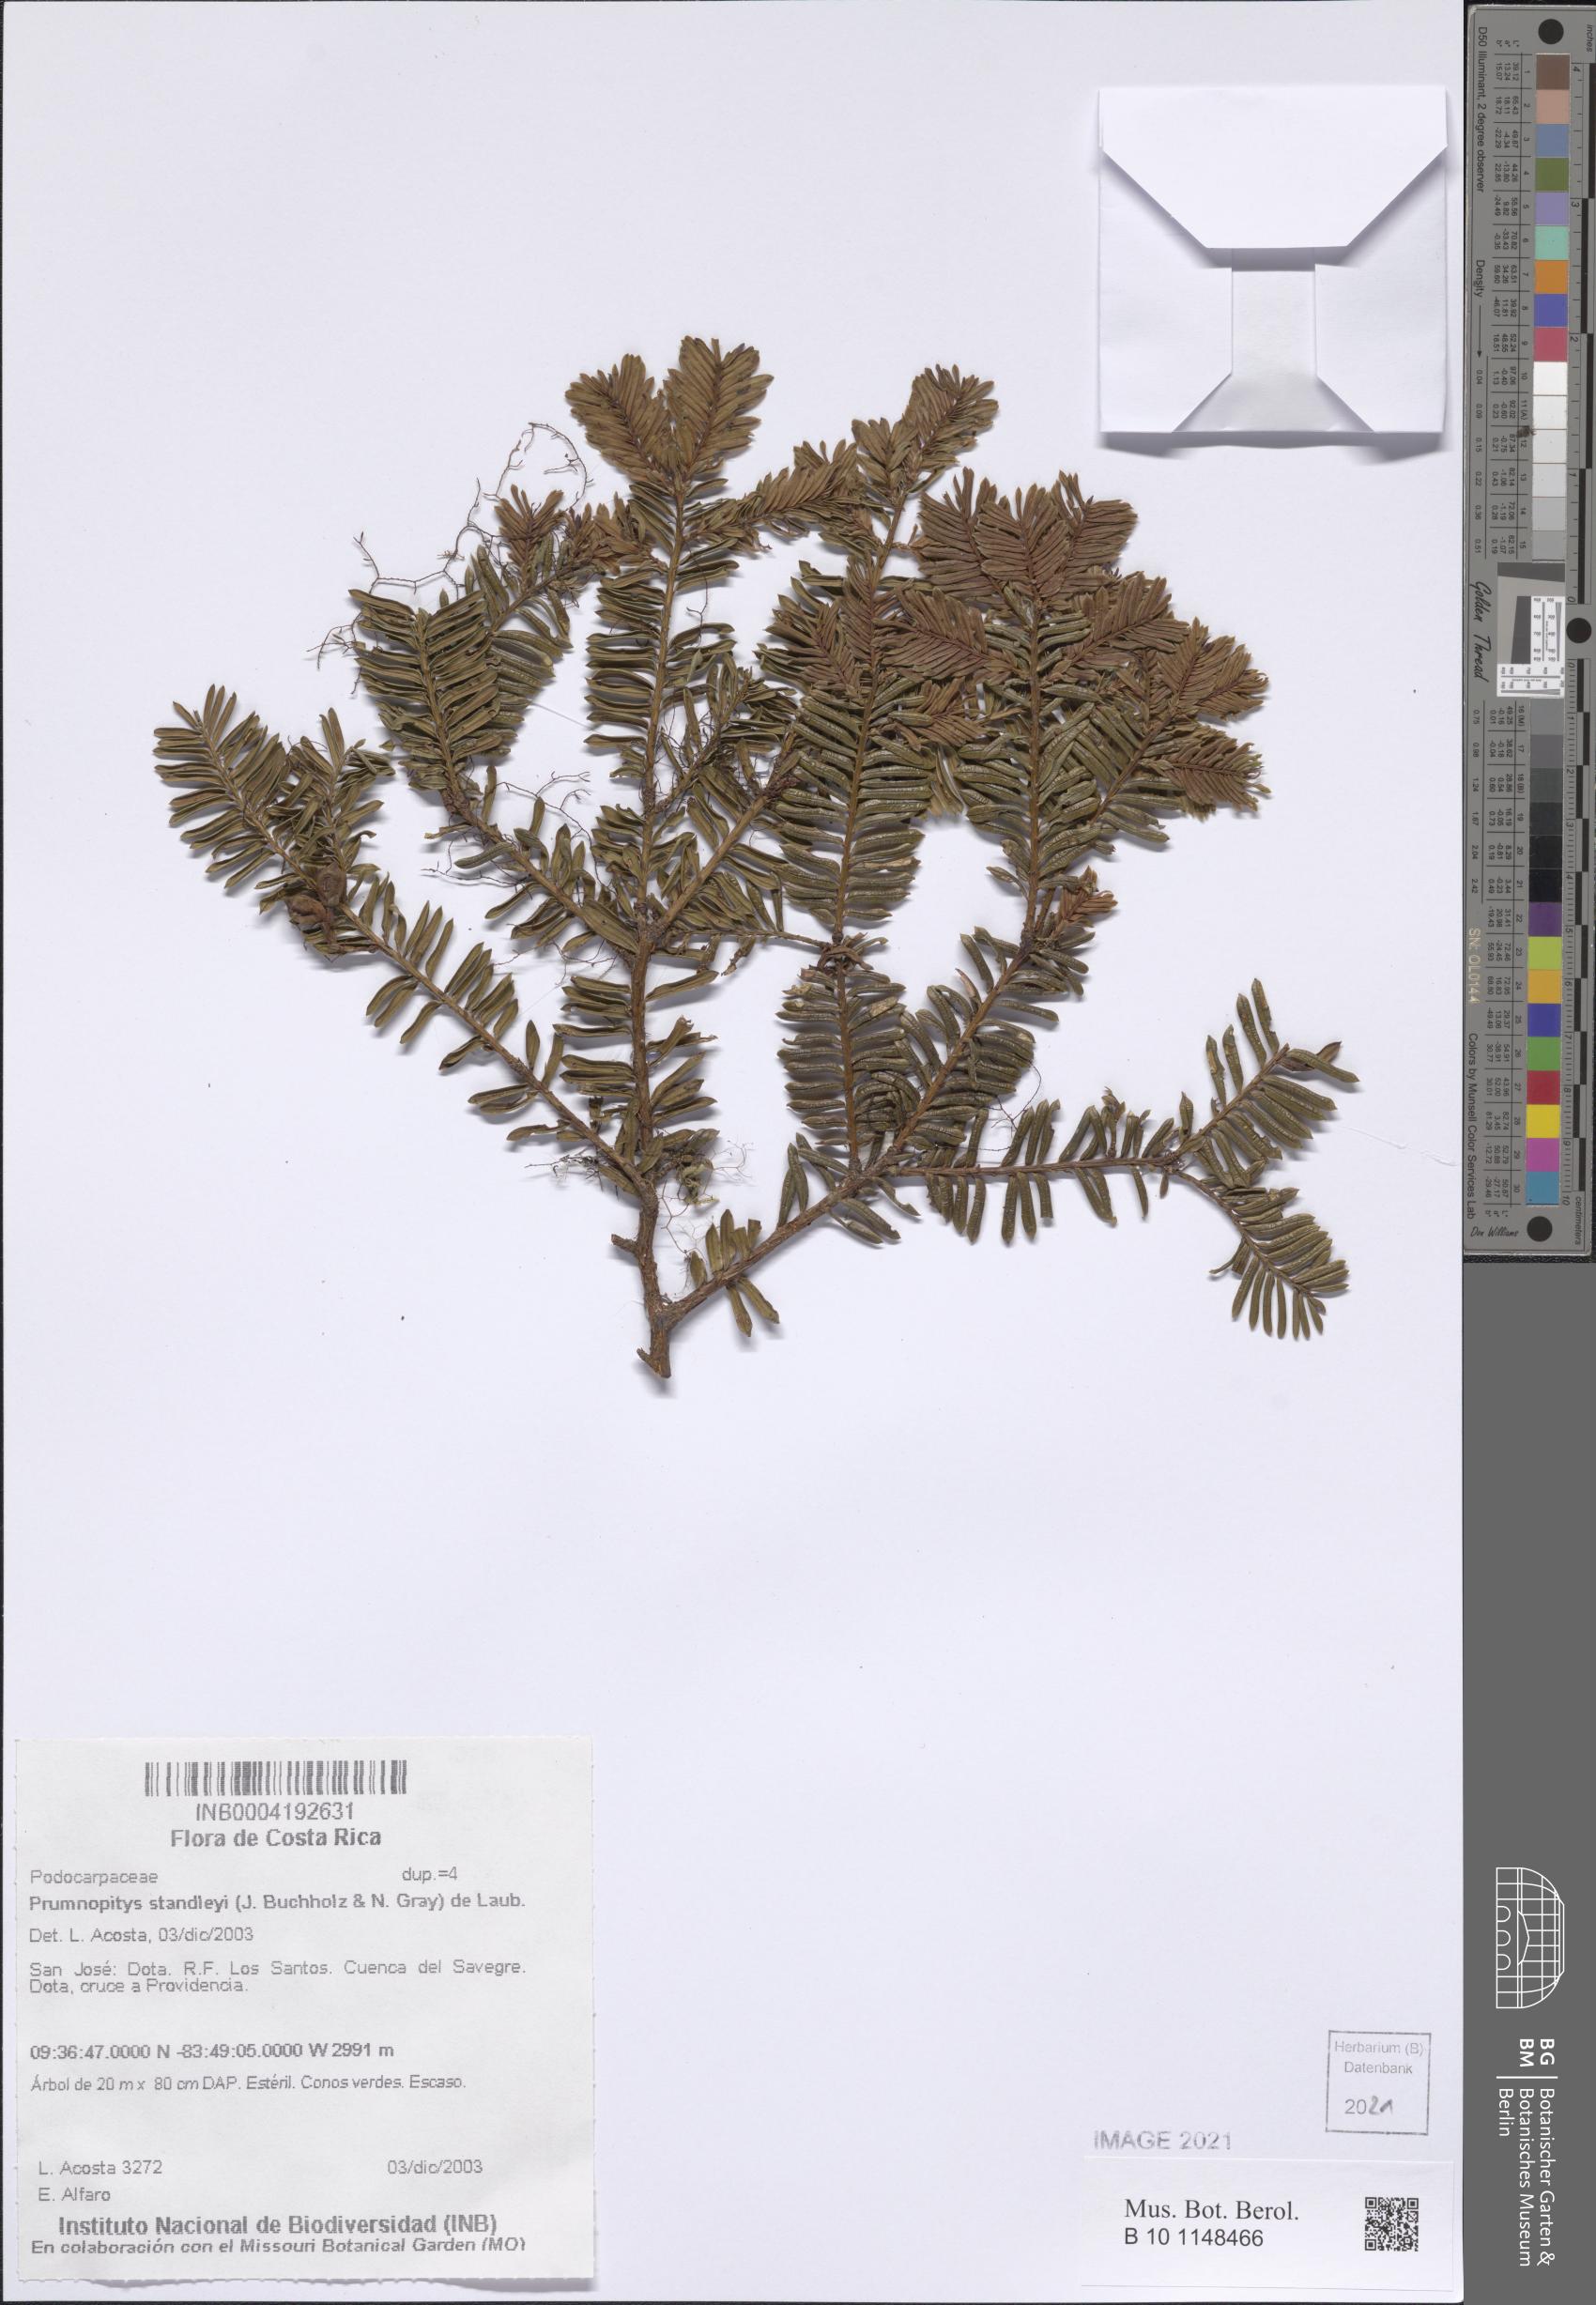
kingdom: Plantae
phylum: Tracheophyta
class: Pinopsida
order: Pinales
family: Podocarpaceae
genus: Prumnopitys
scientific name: Prumnopitys standleyi
